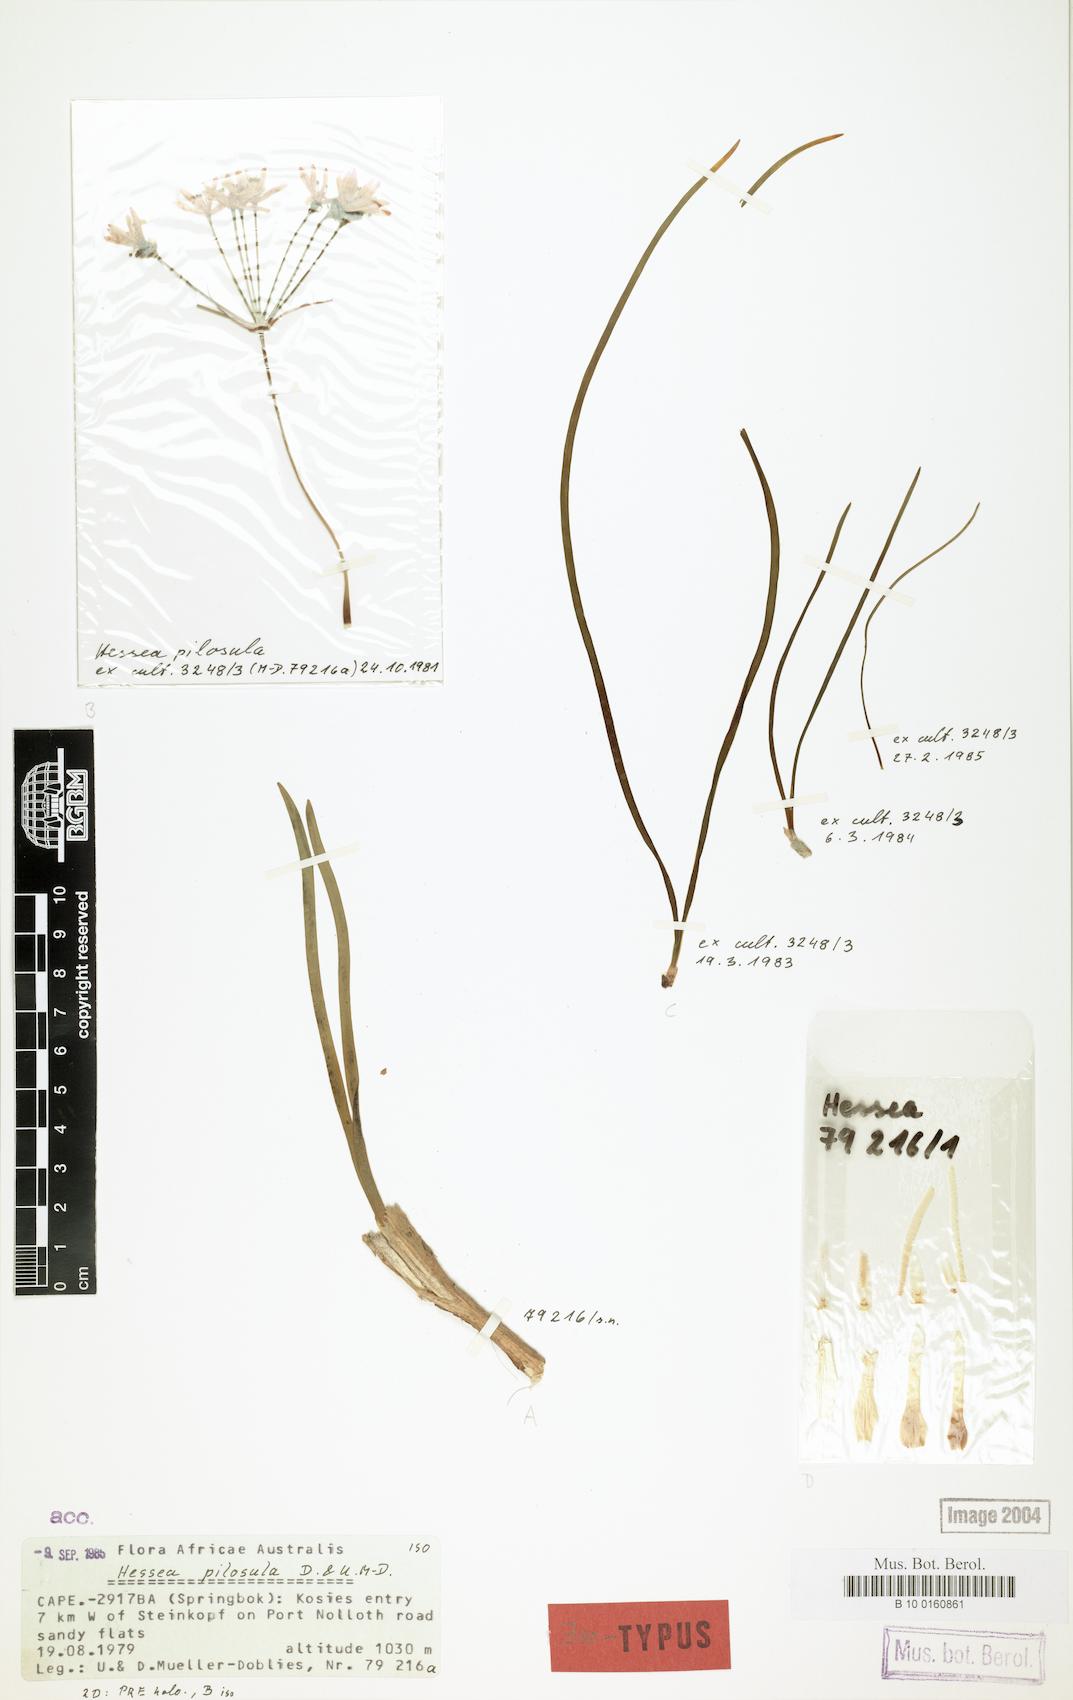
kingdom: Plantae
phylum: Tracheophyta
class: Liliopsida
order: Asparagales
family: Amaryllidaceae
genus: Hessea
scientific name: Hessea pilosula
